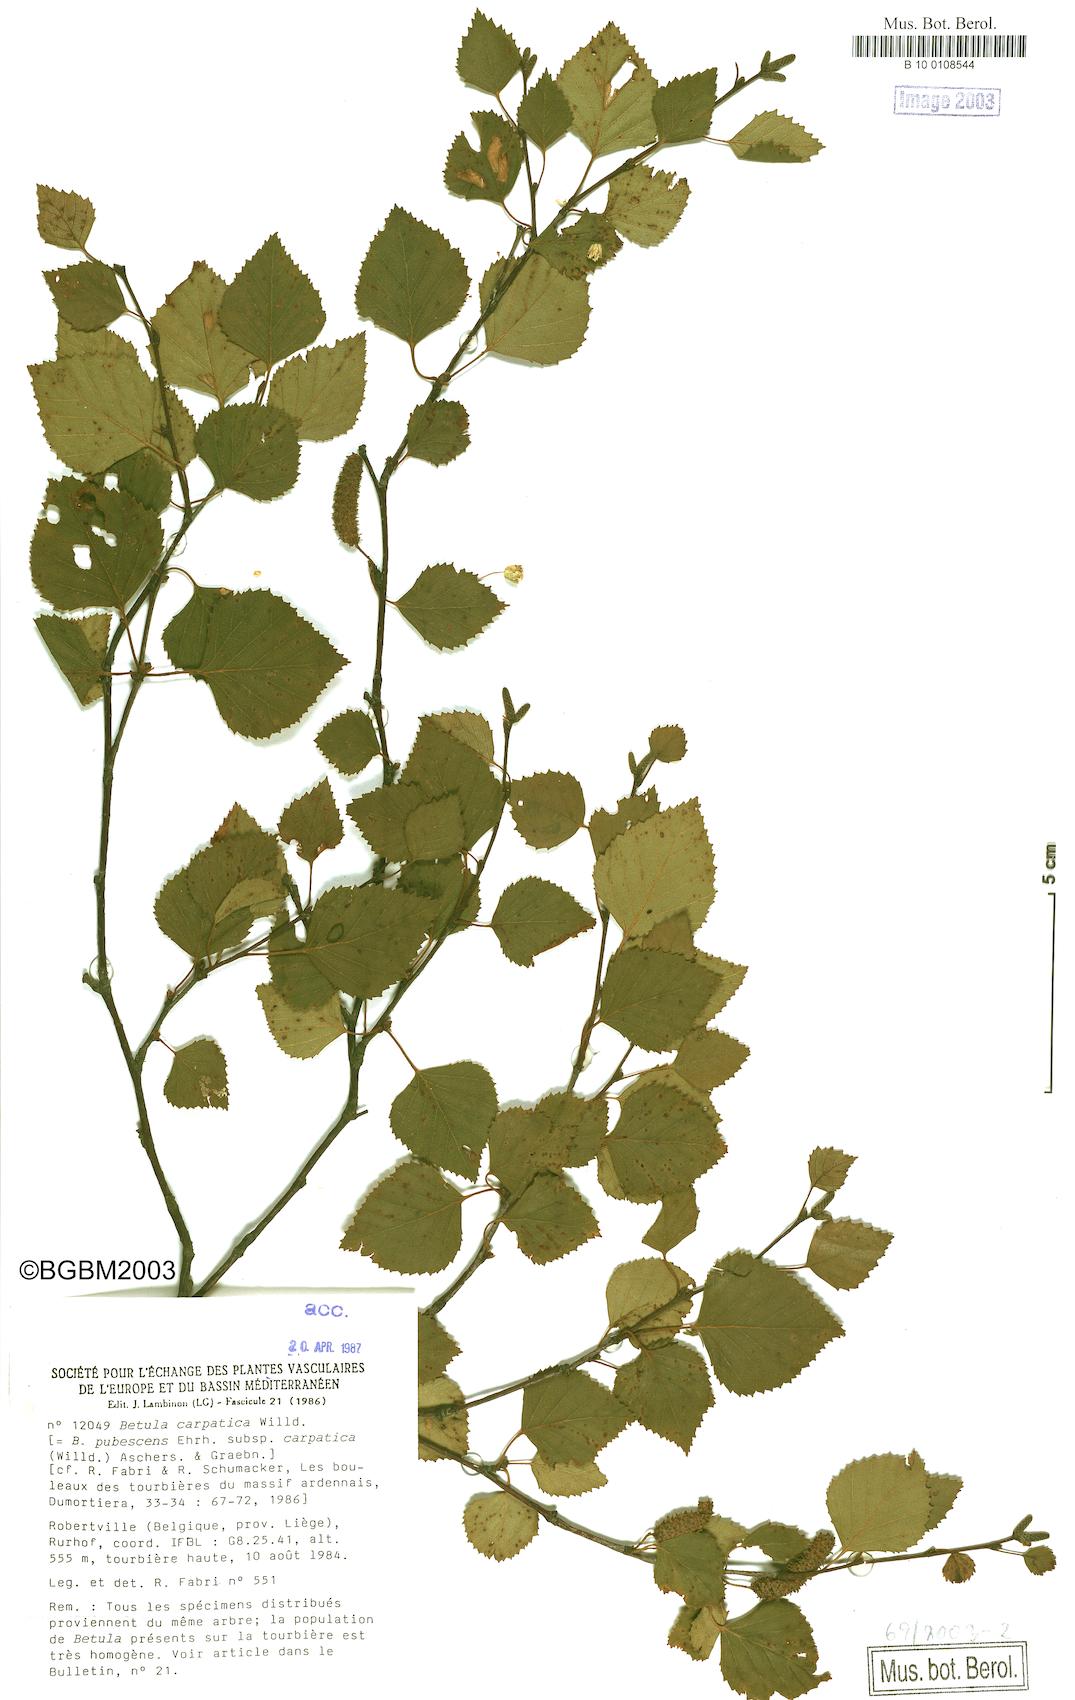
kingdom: Plantae
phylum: Tracheophyta
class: Magnoliopsida
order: Fagales
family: Betulaceae
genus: Betula
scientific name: Betula pubescens
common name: Downy birch
